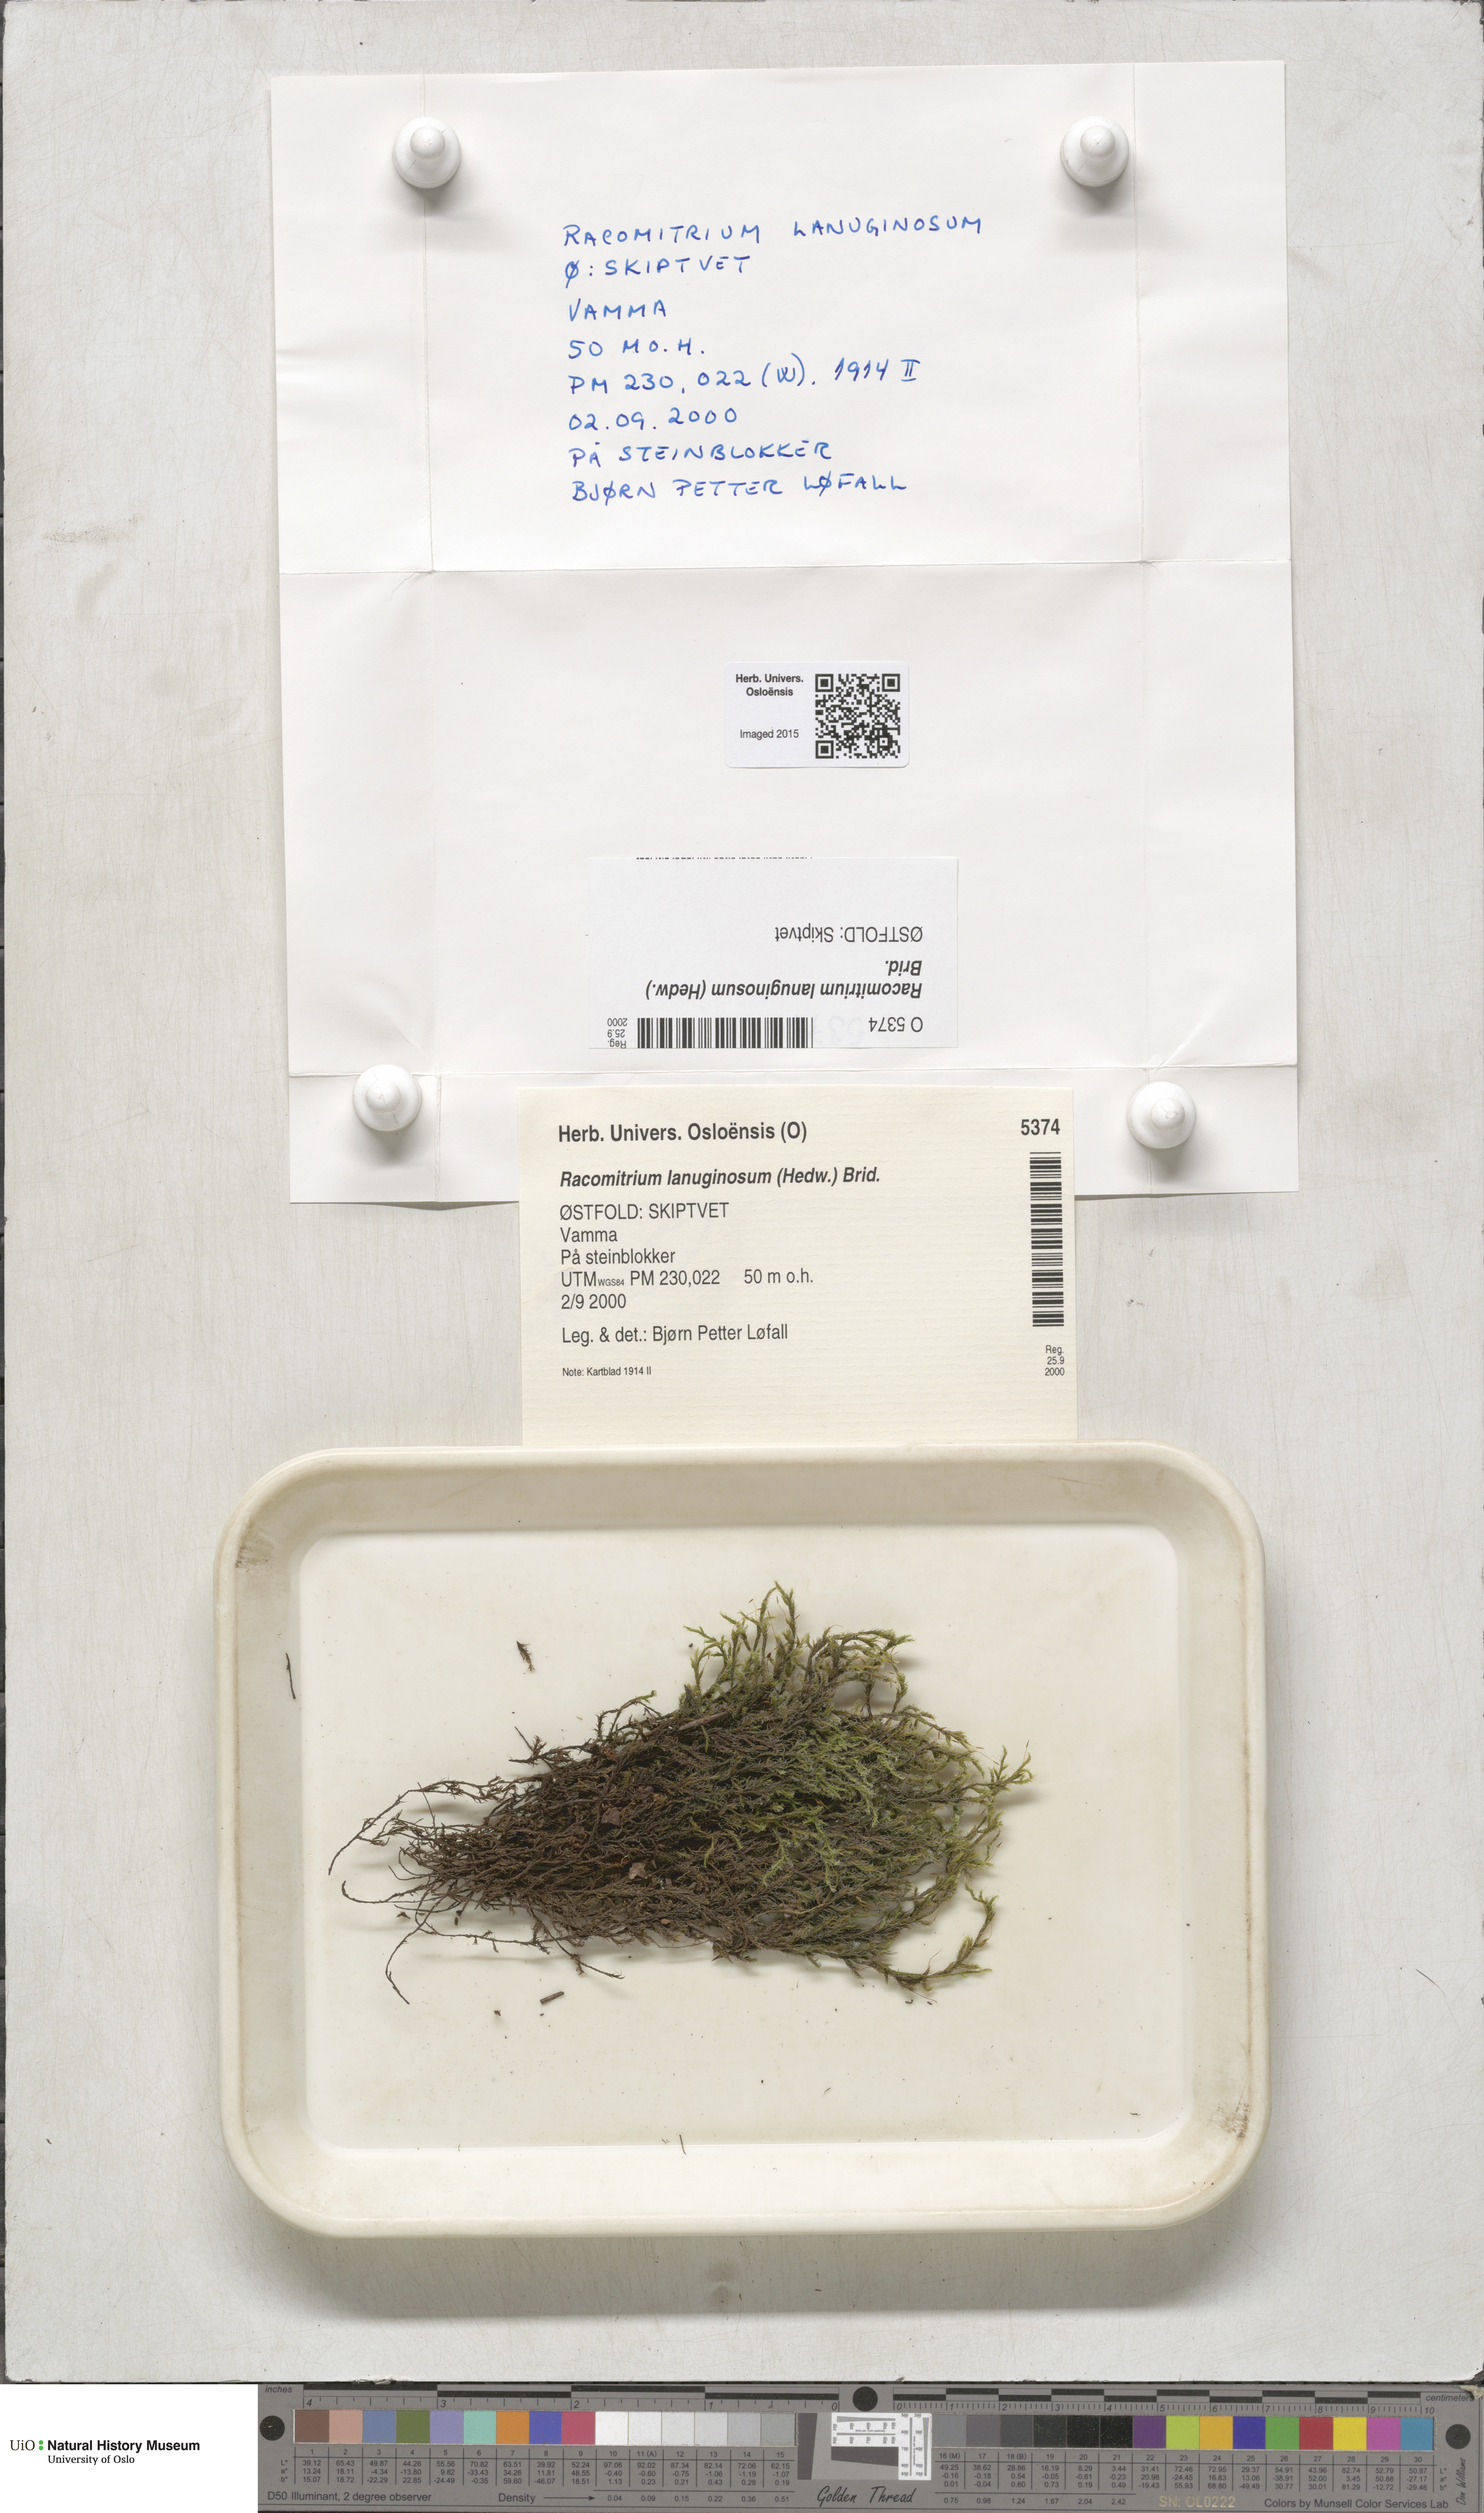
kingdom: Plantae
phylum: Bryophyta
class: Bryopsida
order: Grimmiales
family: Grimmiaceae
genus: Racomitrium
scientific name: Racomitrium lanuginosum
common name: Hoary rock moss
